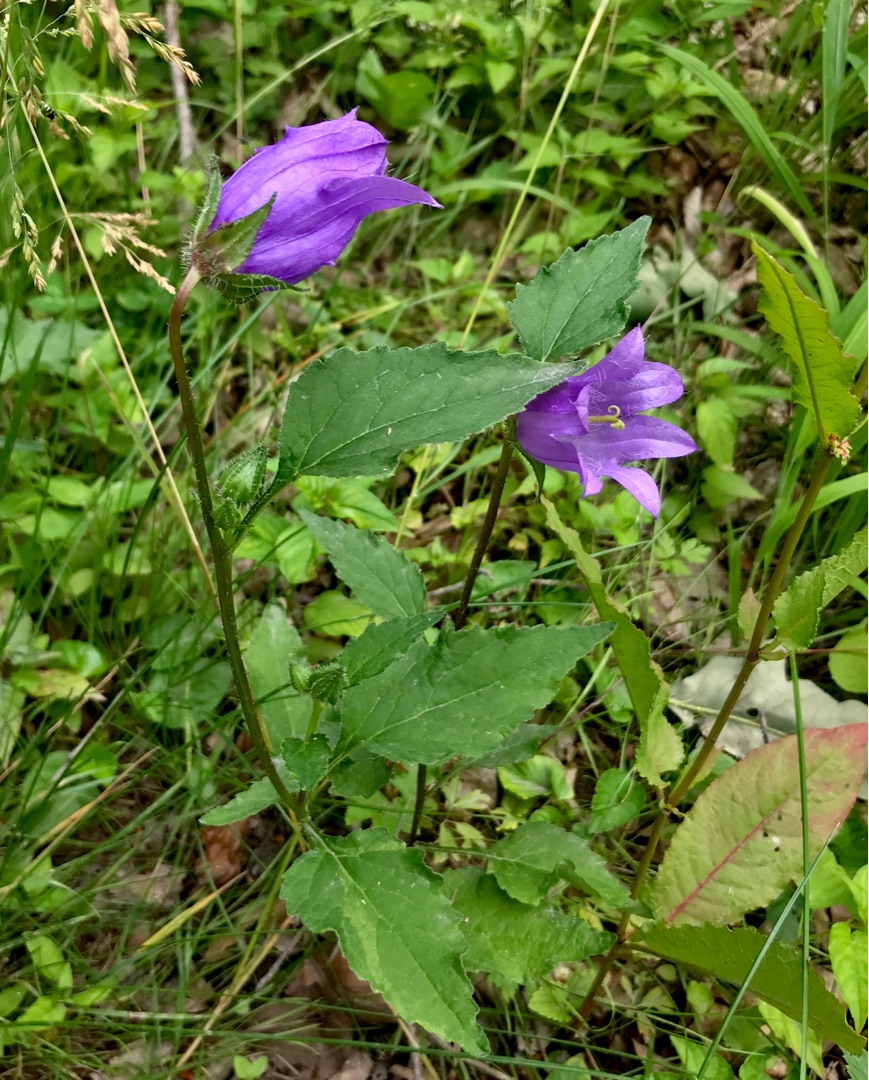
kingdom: Plantae
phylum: Tracheophyta
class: Magnoliopsida
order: Asterales
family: Campanulaceae
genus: Campanula
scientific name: Campanula trachelium
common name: Nælde-klokke
